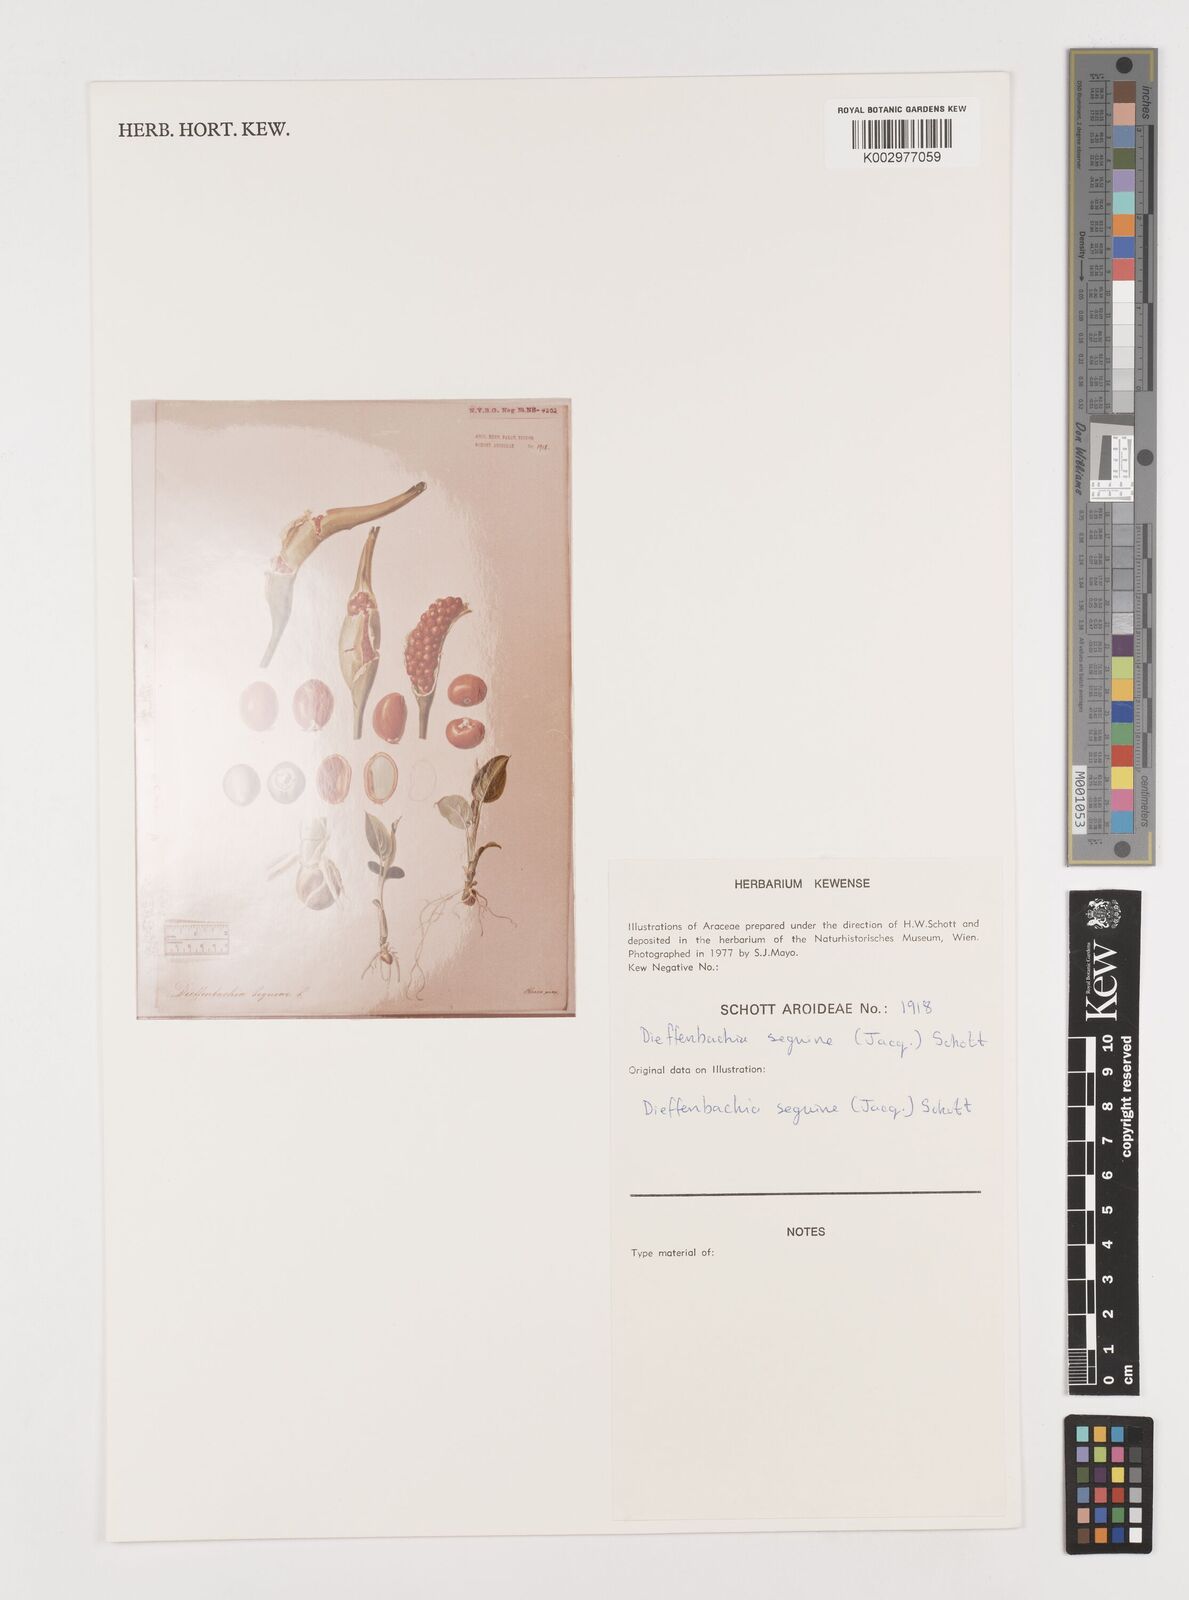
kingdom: Plantae
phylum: Tracheophyta
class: Liliopsida
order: Alismatales
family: Araceae
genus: Dieffenbachia
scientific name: Dieffenbachia seguine
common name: Dumbcane
